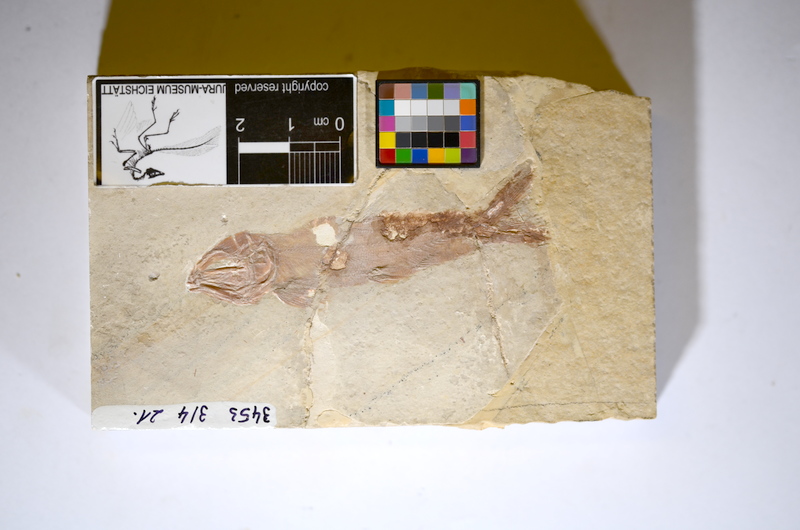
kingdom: Animalia
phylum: Chordata
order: Amiiformes
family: Liodesmidae
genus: Liodesmus
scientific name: Liodesmus sprattiformis
